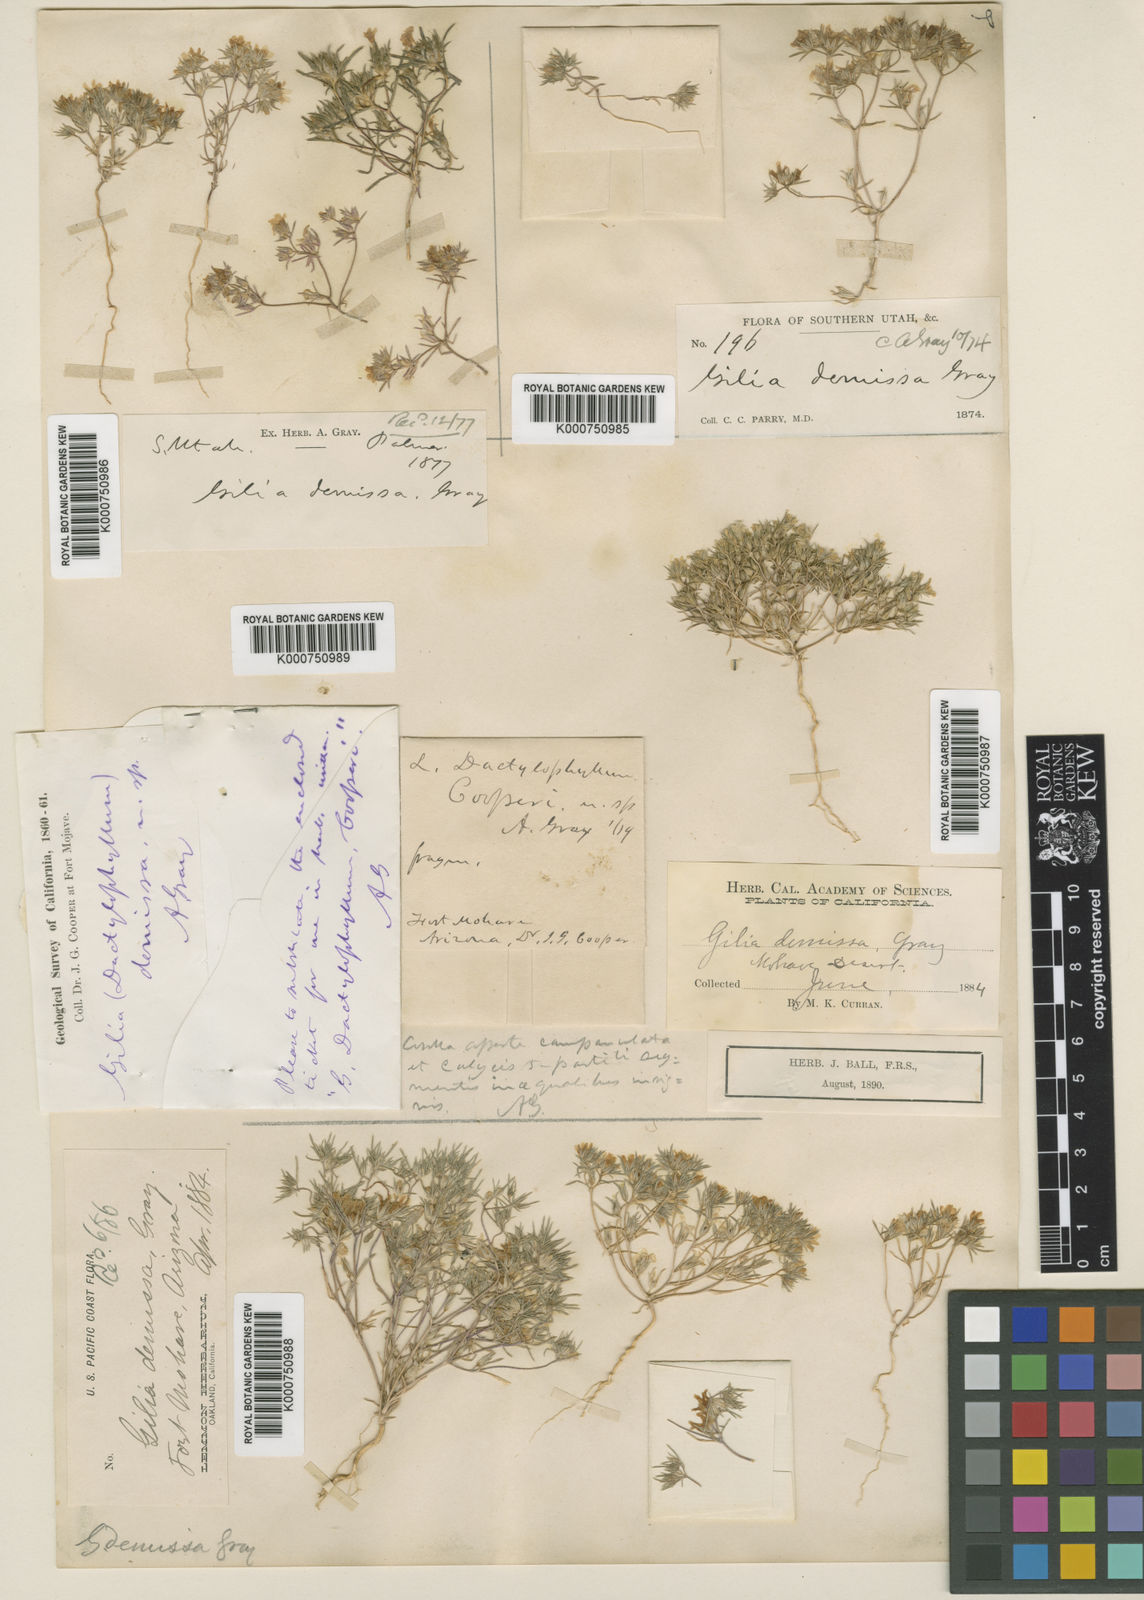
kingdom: Plantae
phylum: Tracheophyta
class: Magnoliopsida
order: Ericales
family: Polemoniaceae
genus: Linanthus
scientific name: Linanthus demissus
